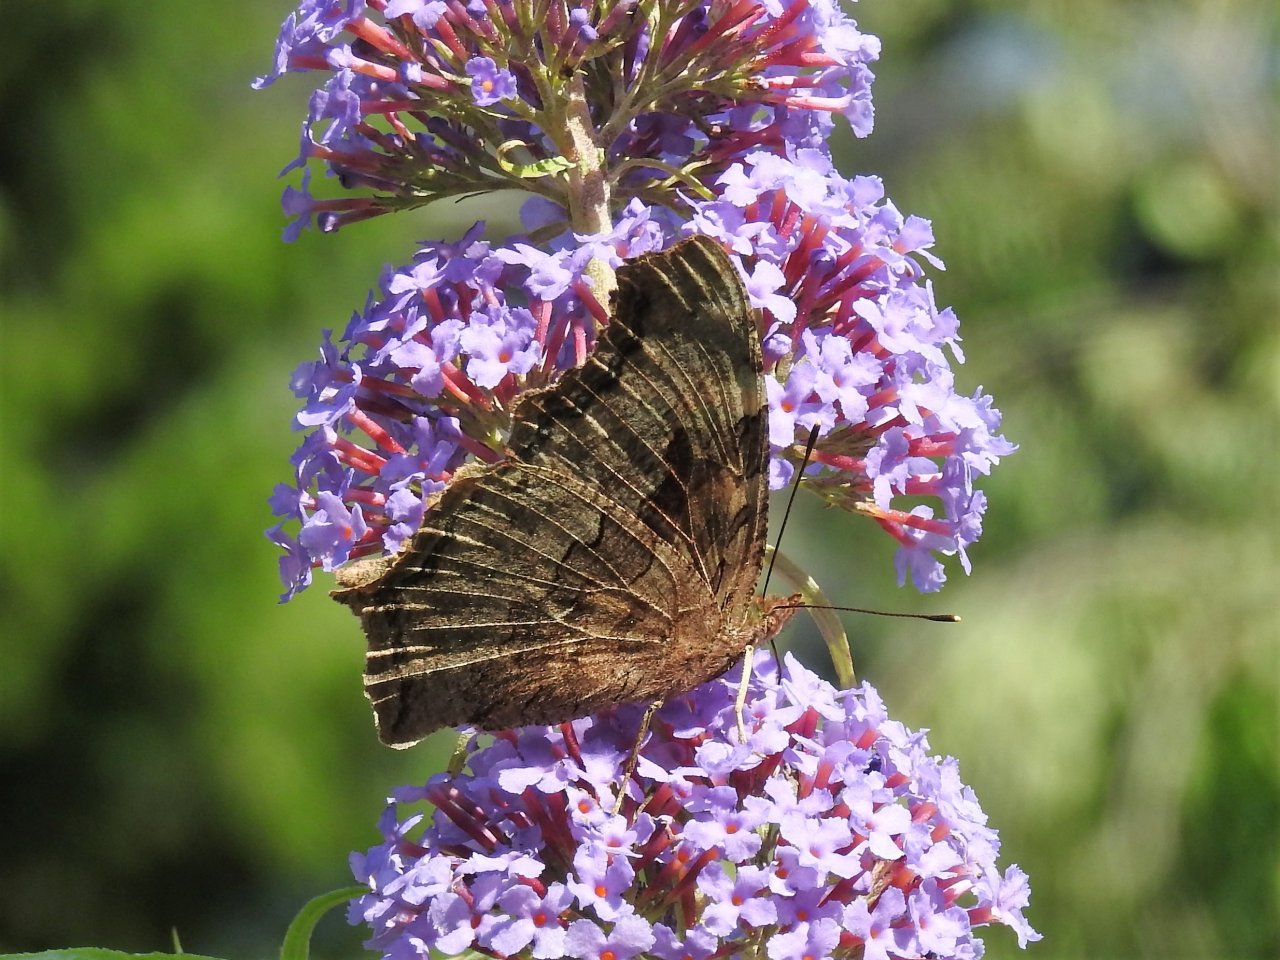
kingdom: Animalia
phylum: Arthropoda
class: Insecta
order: Lepidoptera
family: Nymphalidae
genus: Polygonia
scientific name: Polygonia vaualbum
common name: Compton Tortoiseshell
